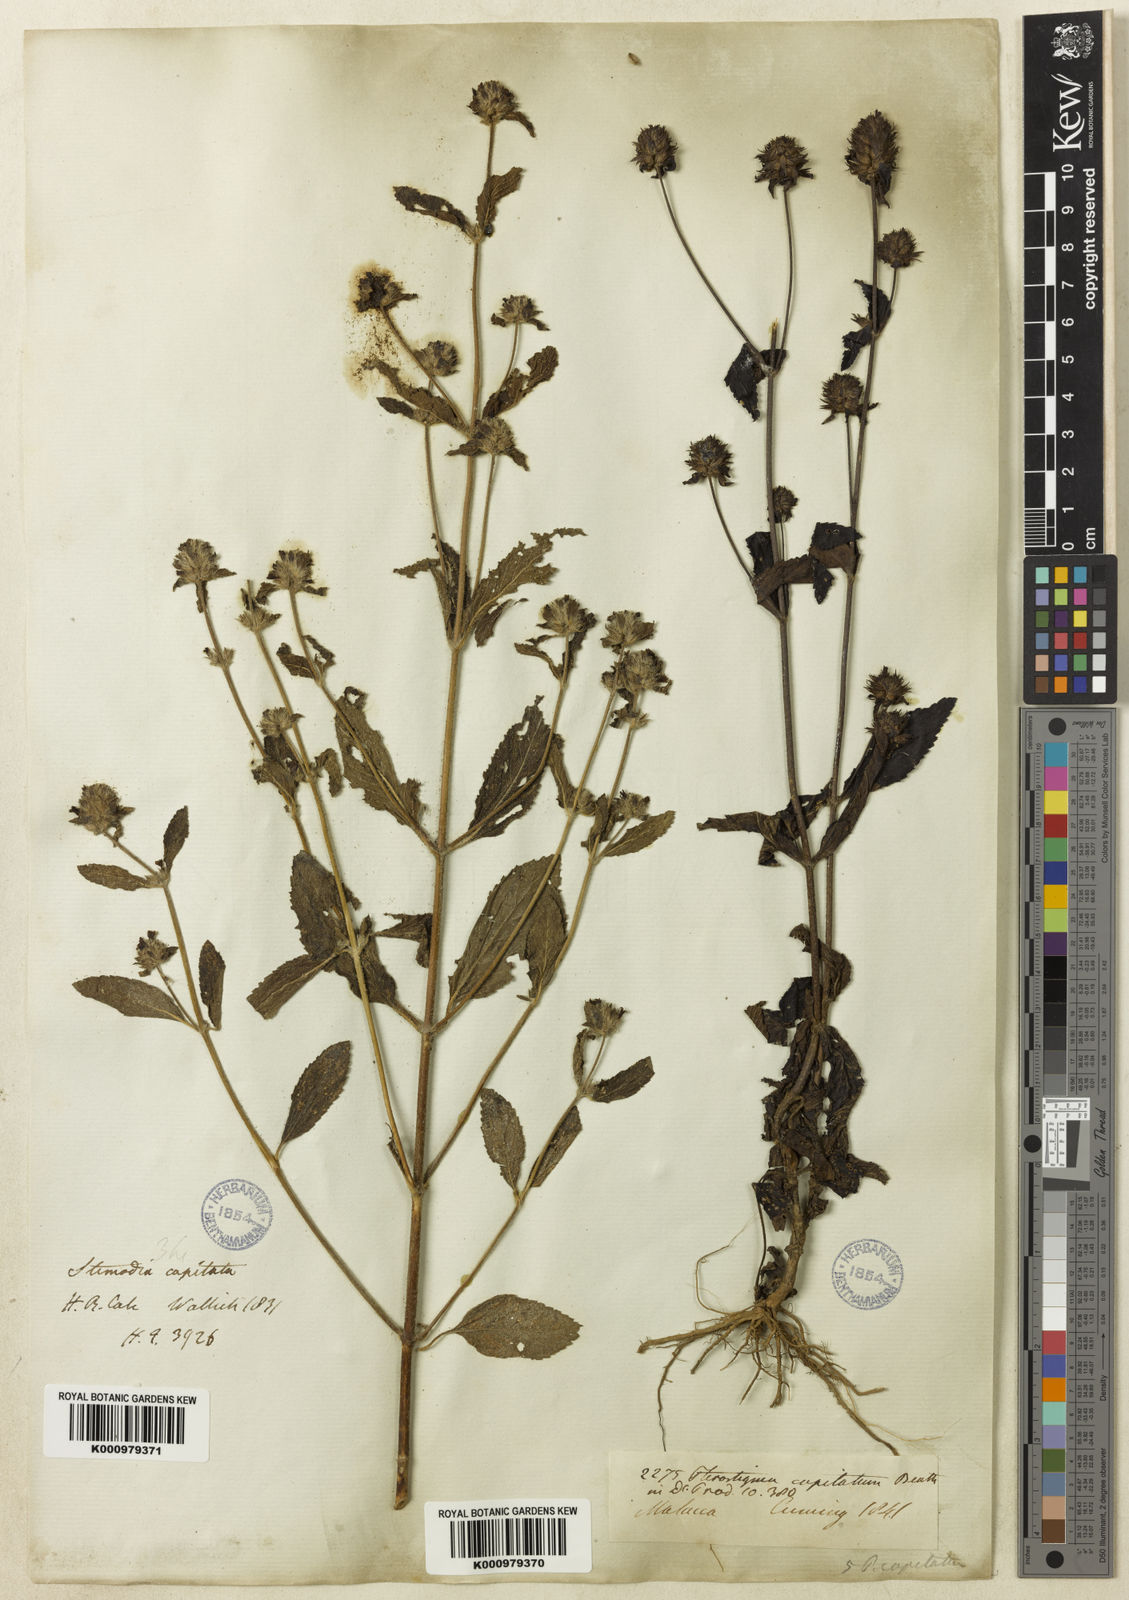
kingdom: Plantae
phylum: Tracheophyta
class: Magnoliopsida
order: Lamiales
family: Plantaginaceae
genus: Adenosma
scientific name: Adenosma indiana
